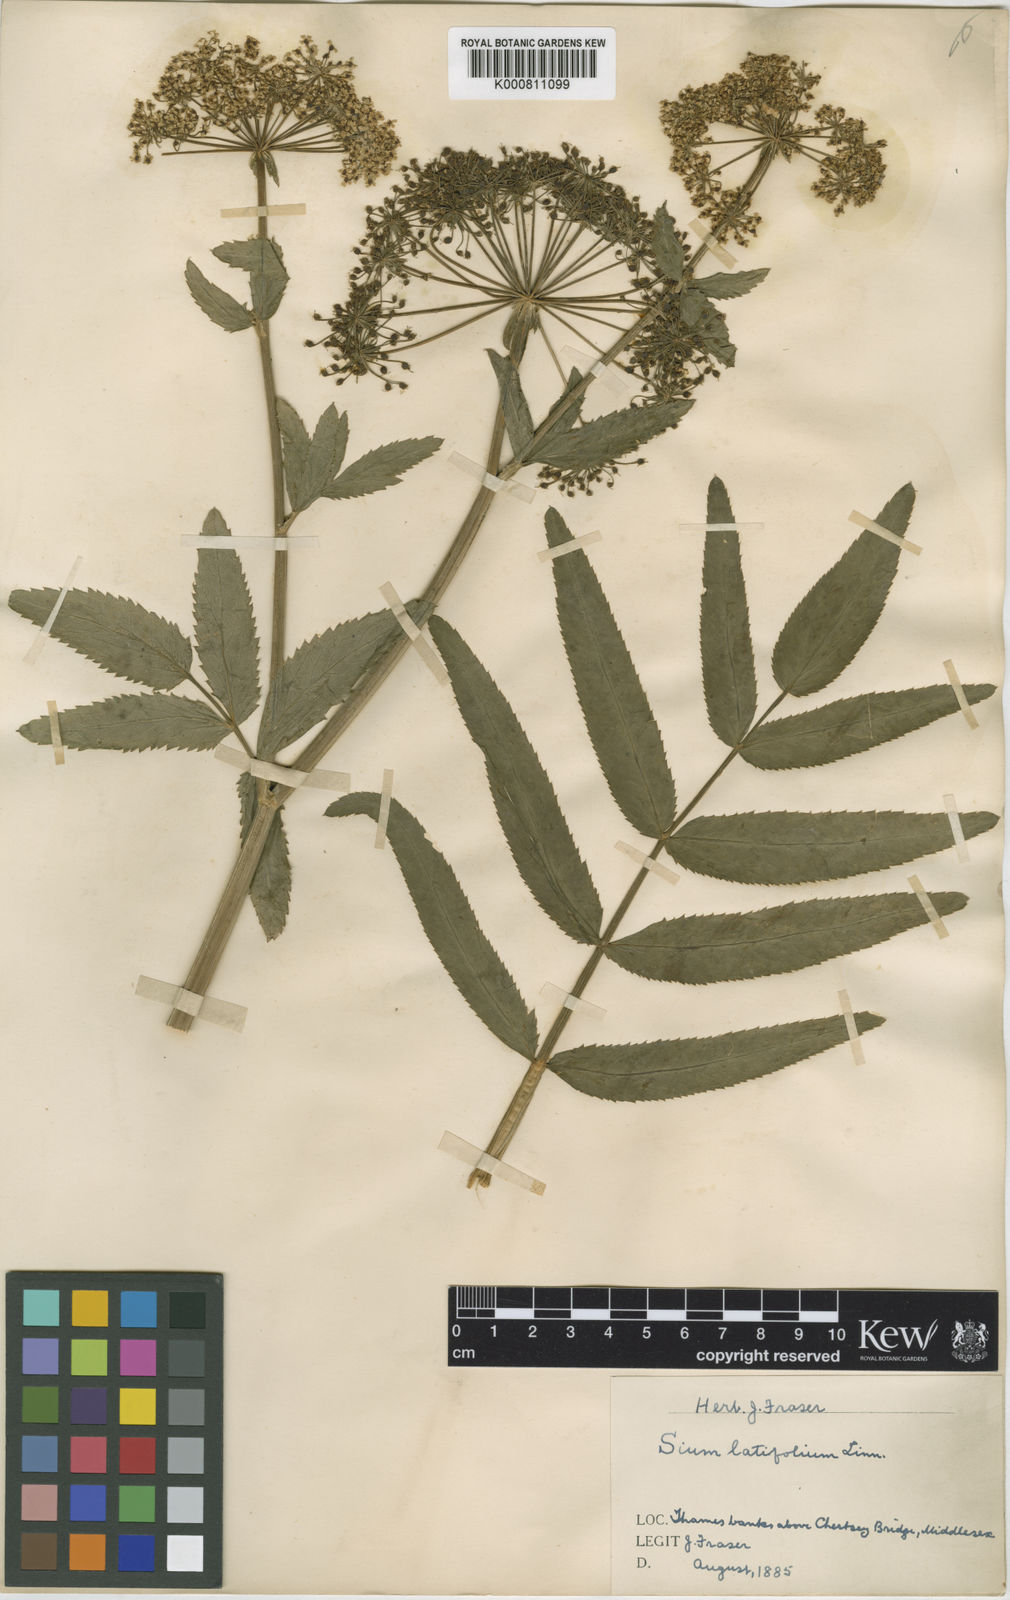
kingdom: Plantae
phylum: Tracheophyta
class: Magnoliopsida
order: Apiales
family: Apiaceae
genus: Sium
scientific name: Sium latifolium
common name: Greater water-parsnip
